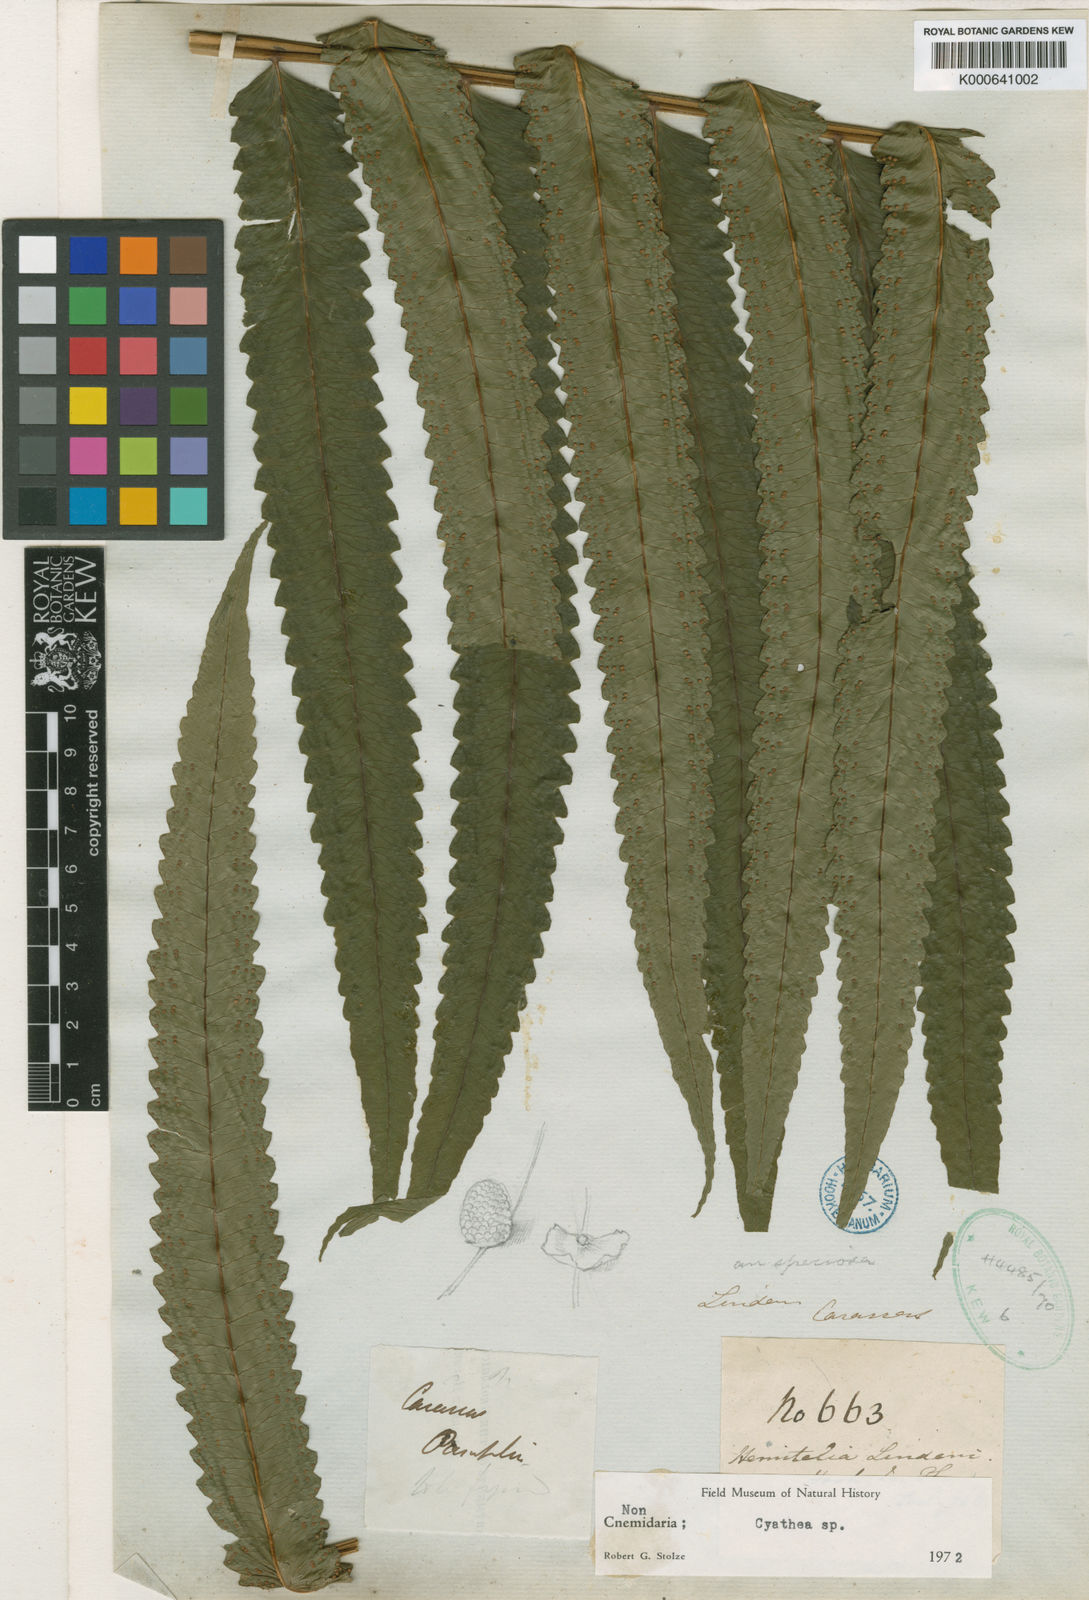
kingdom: Plantae
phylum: Tracheophyta
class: Polypodiopsida
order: Cyatheales
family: Cyatheaceae
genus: Cyathea
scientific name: Cyathea speciosa
